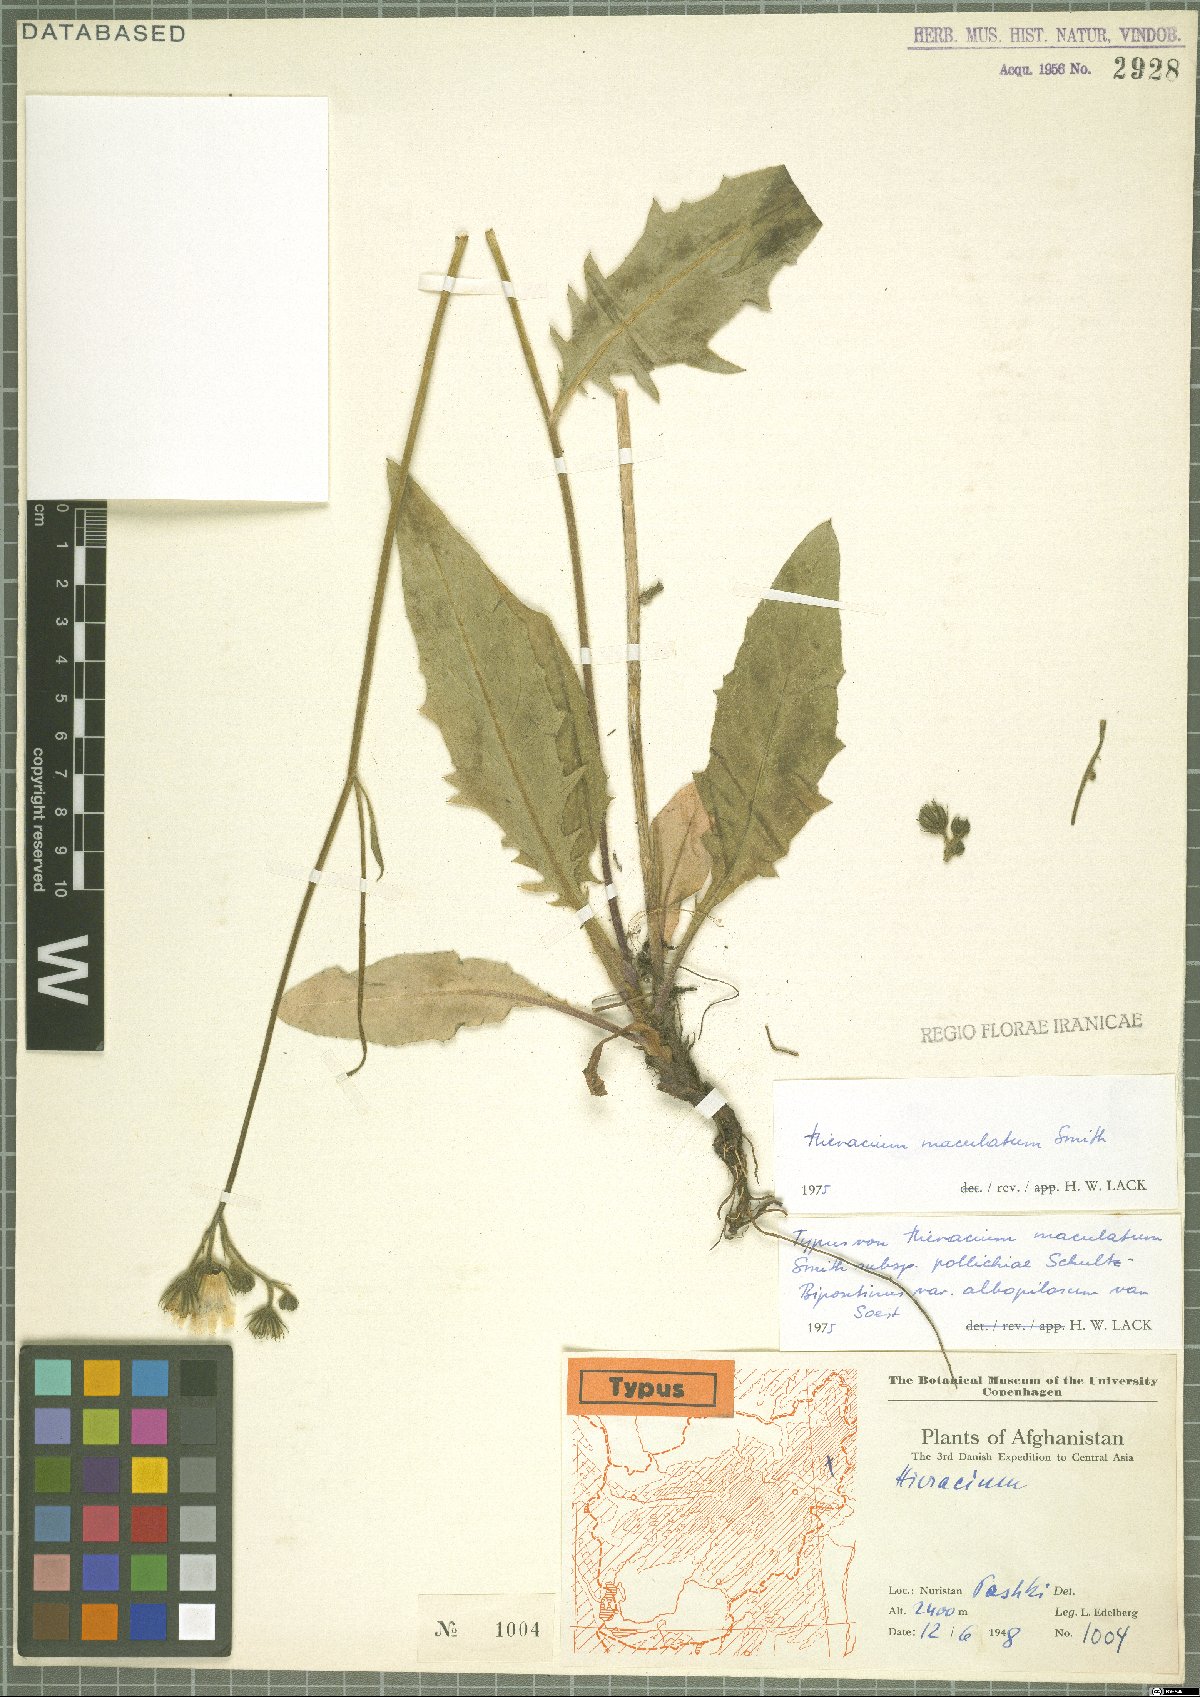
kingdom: Plantae
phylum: Tracheophyta
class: Magnoliopsida
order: Asterales
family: Asteraceae
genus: Hieracium
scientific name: Hieracium maculatum
